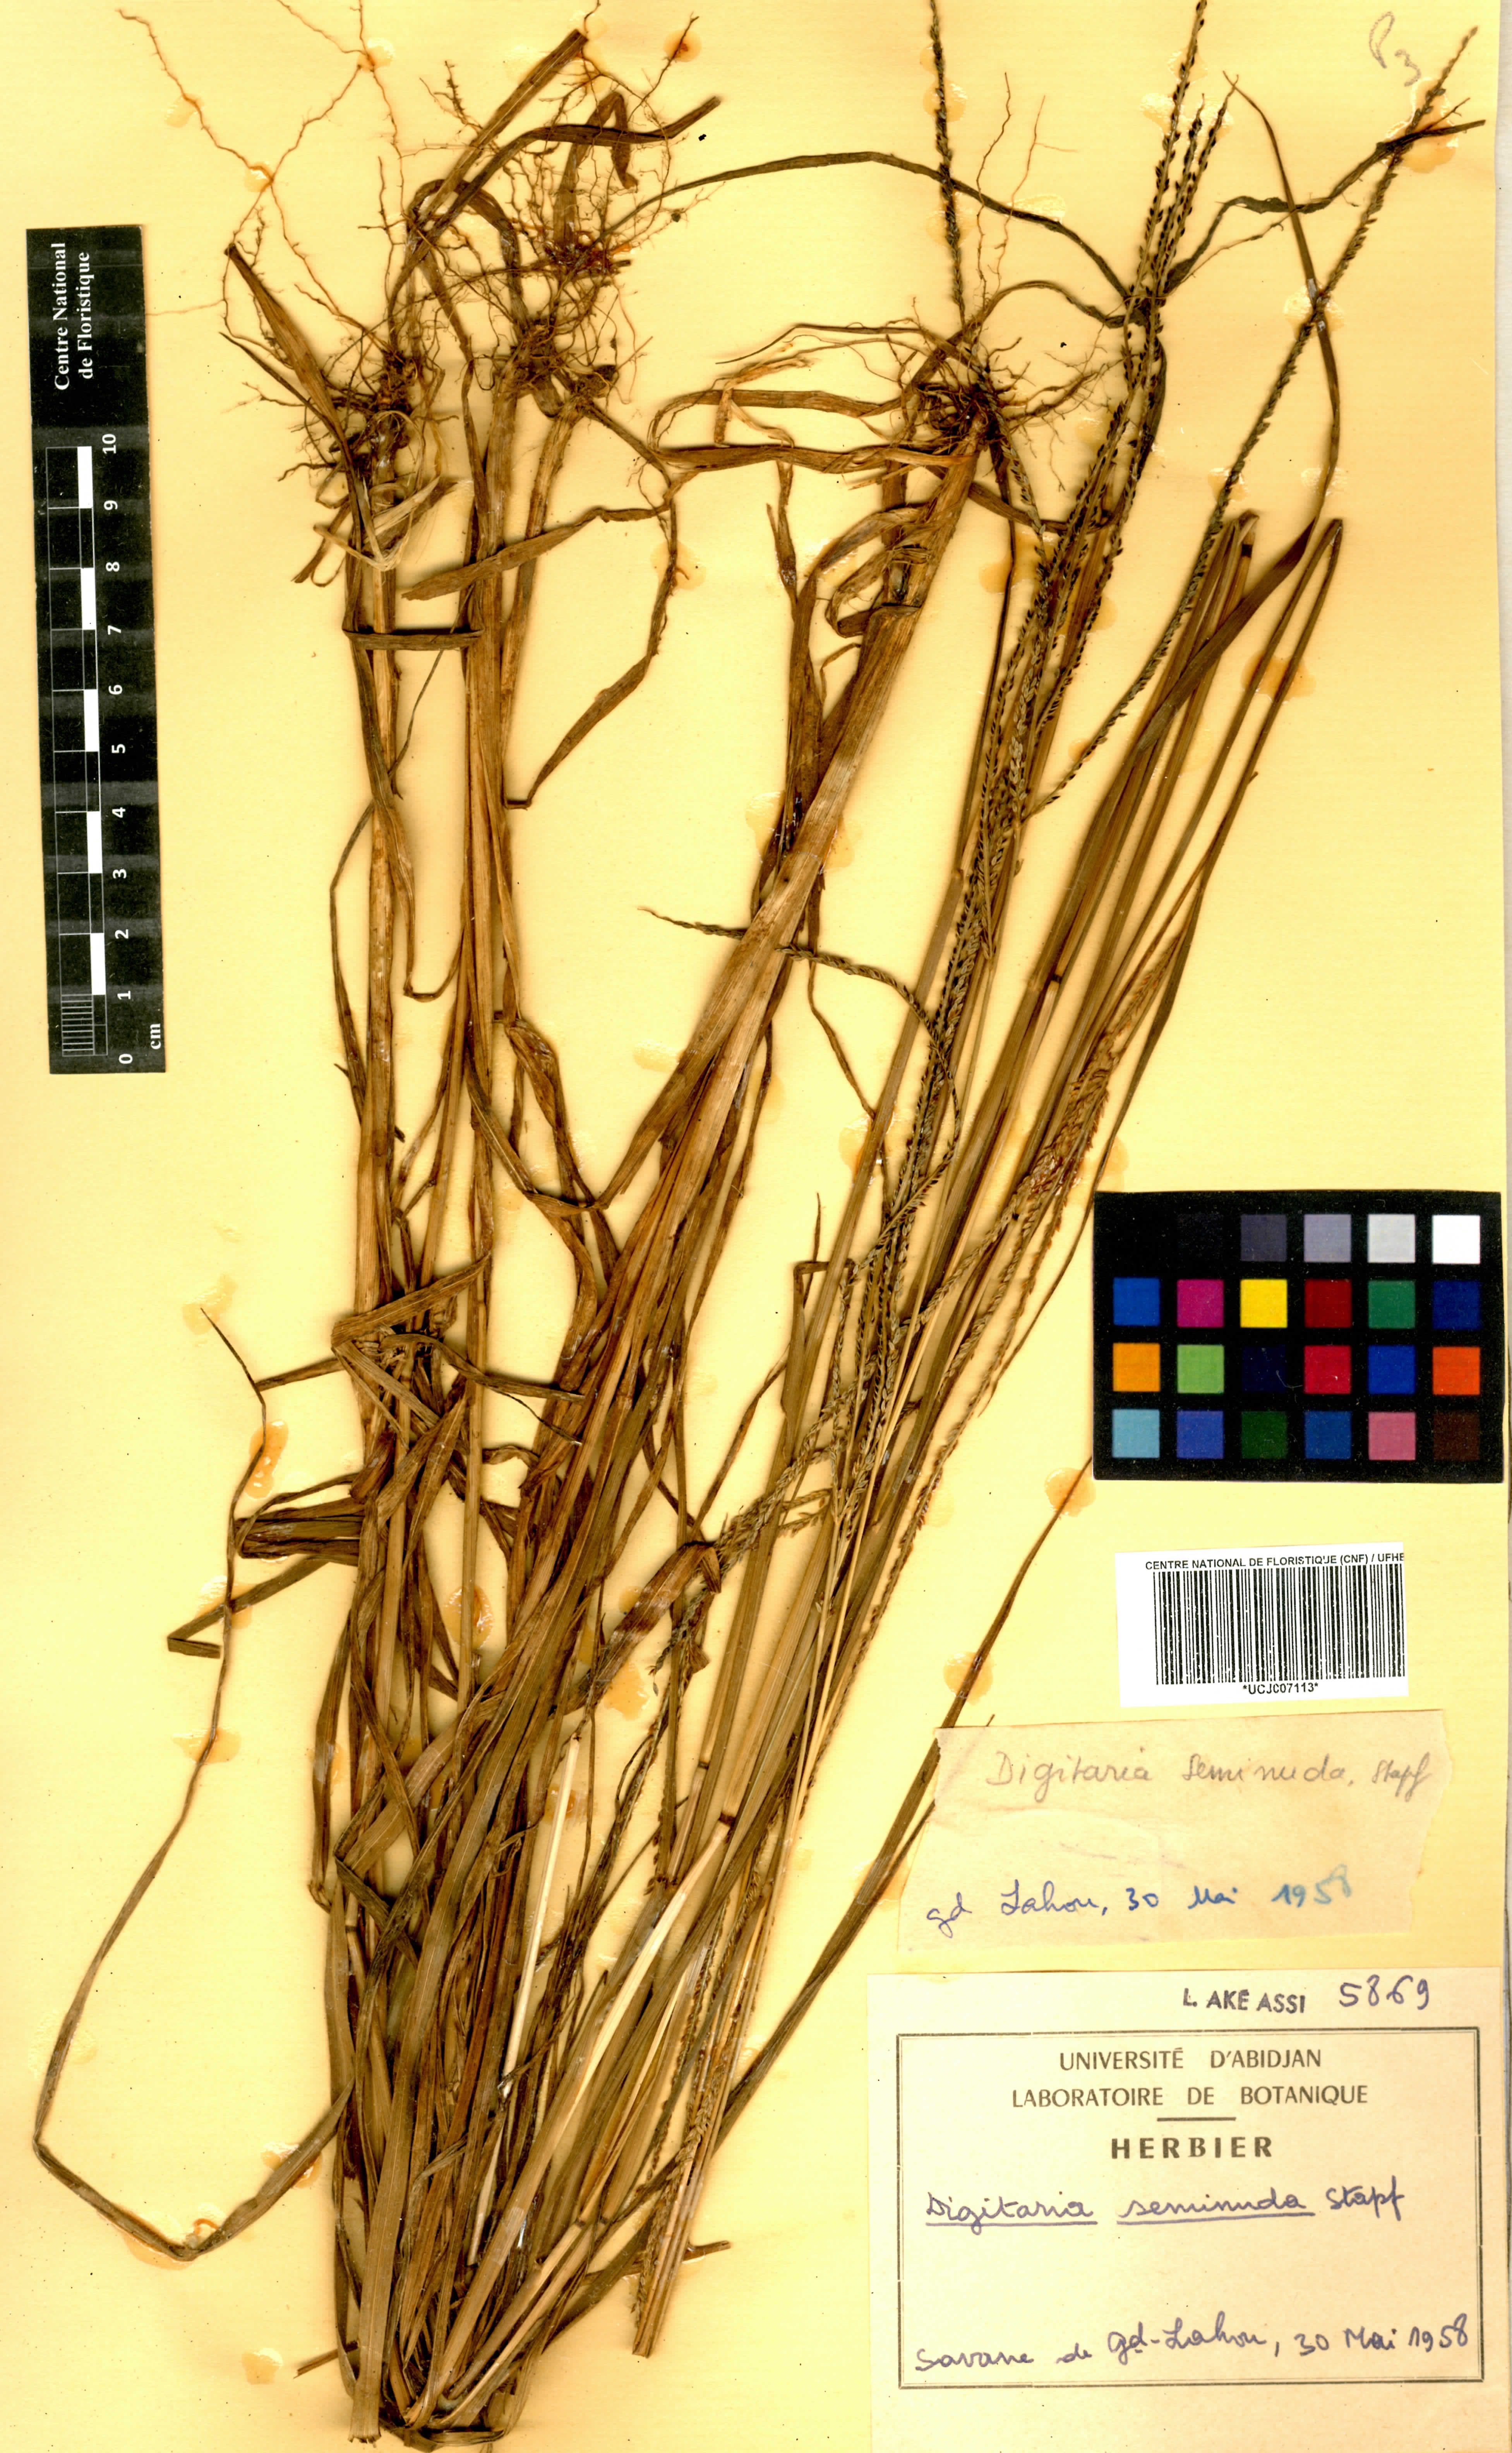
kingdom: Plantae
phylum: Tracheophyta
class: Liliopsida
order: Poales
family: Poaceae
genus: Digitaria
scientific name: Digitaria atrofusca
